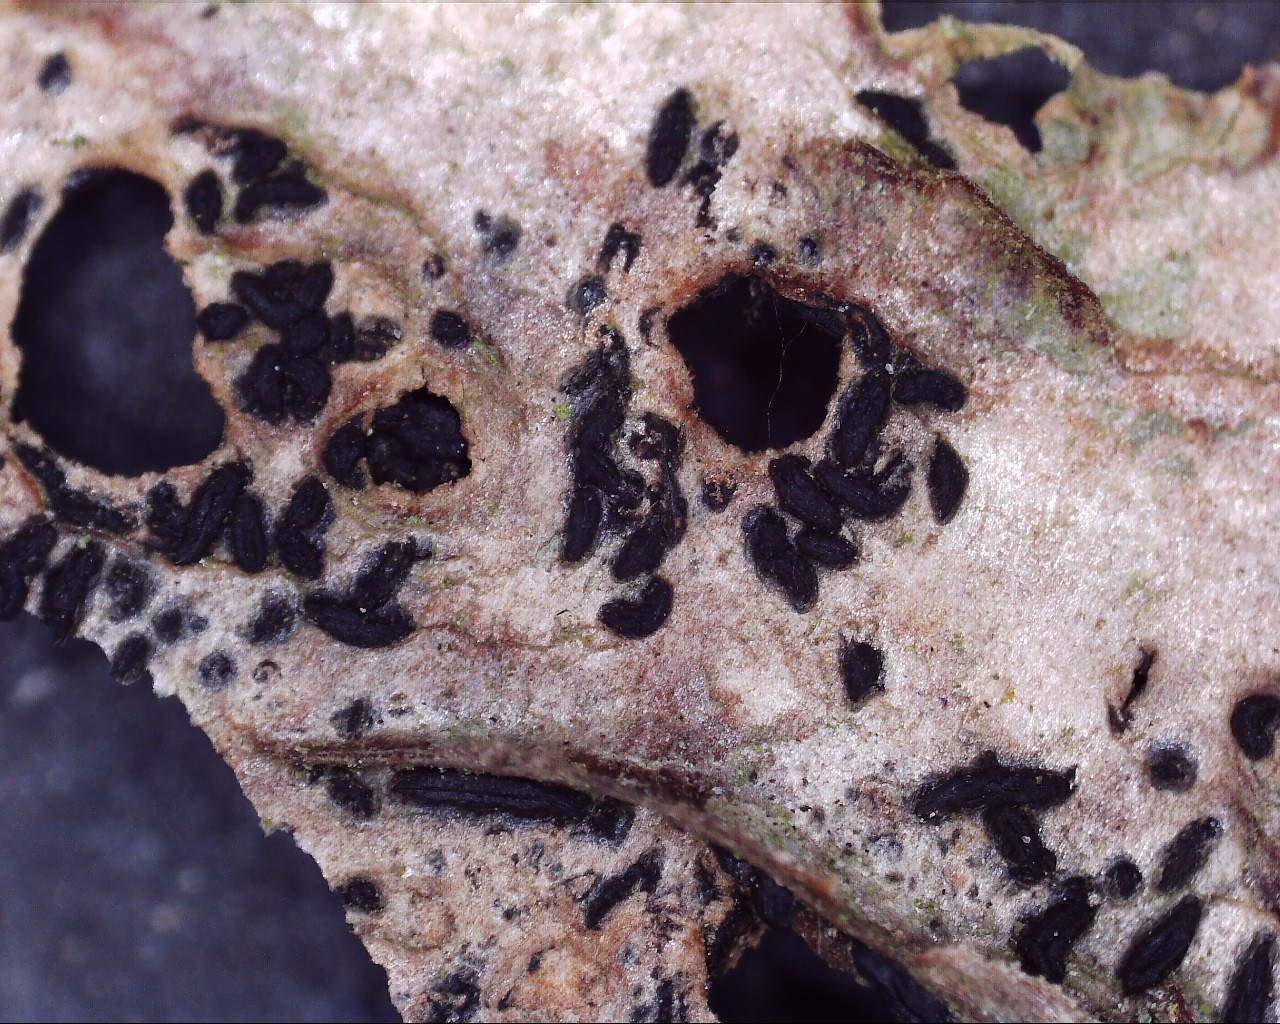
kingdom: Fungi
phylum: Ascomycota
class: Dothideomycetes
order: Hysteriales
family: Hysteriaceae
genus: Hysterium
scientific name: Hysterium acuminatum
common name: almindelig kulmund
